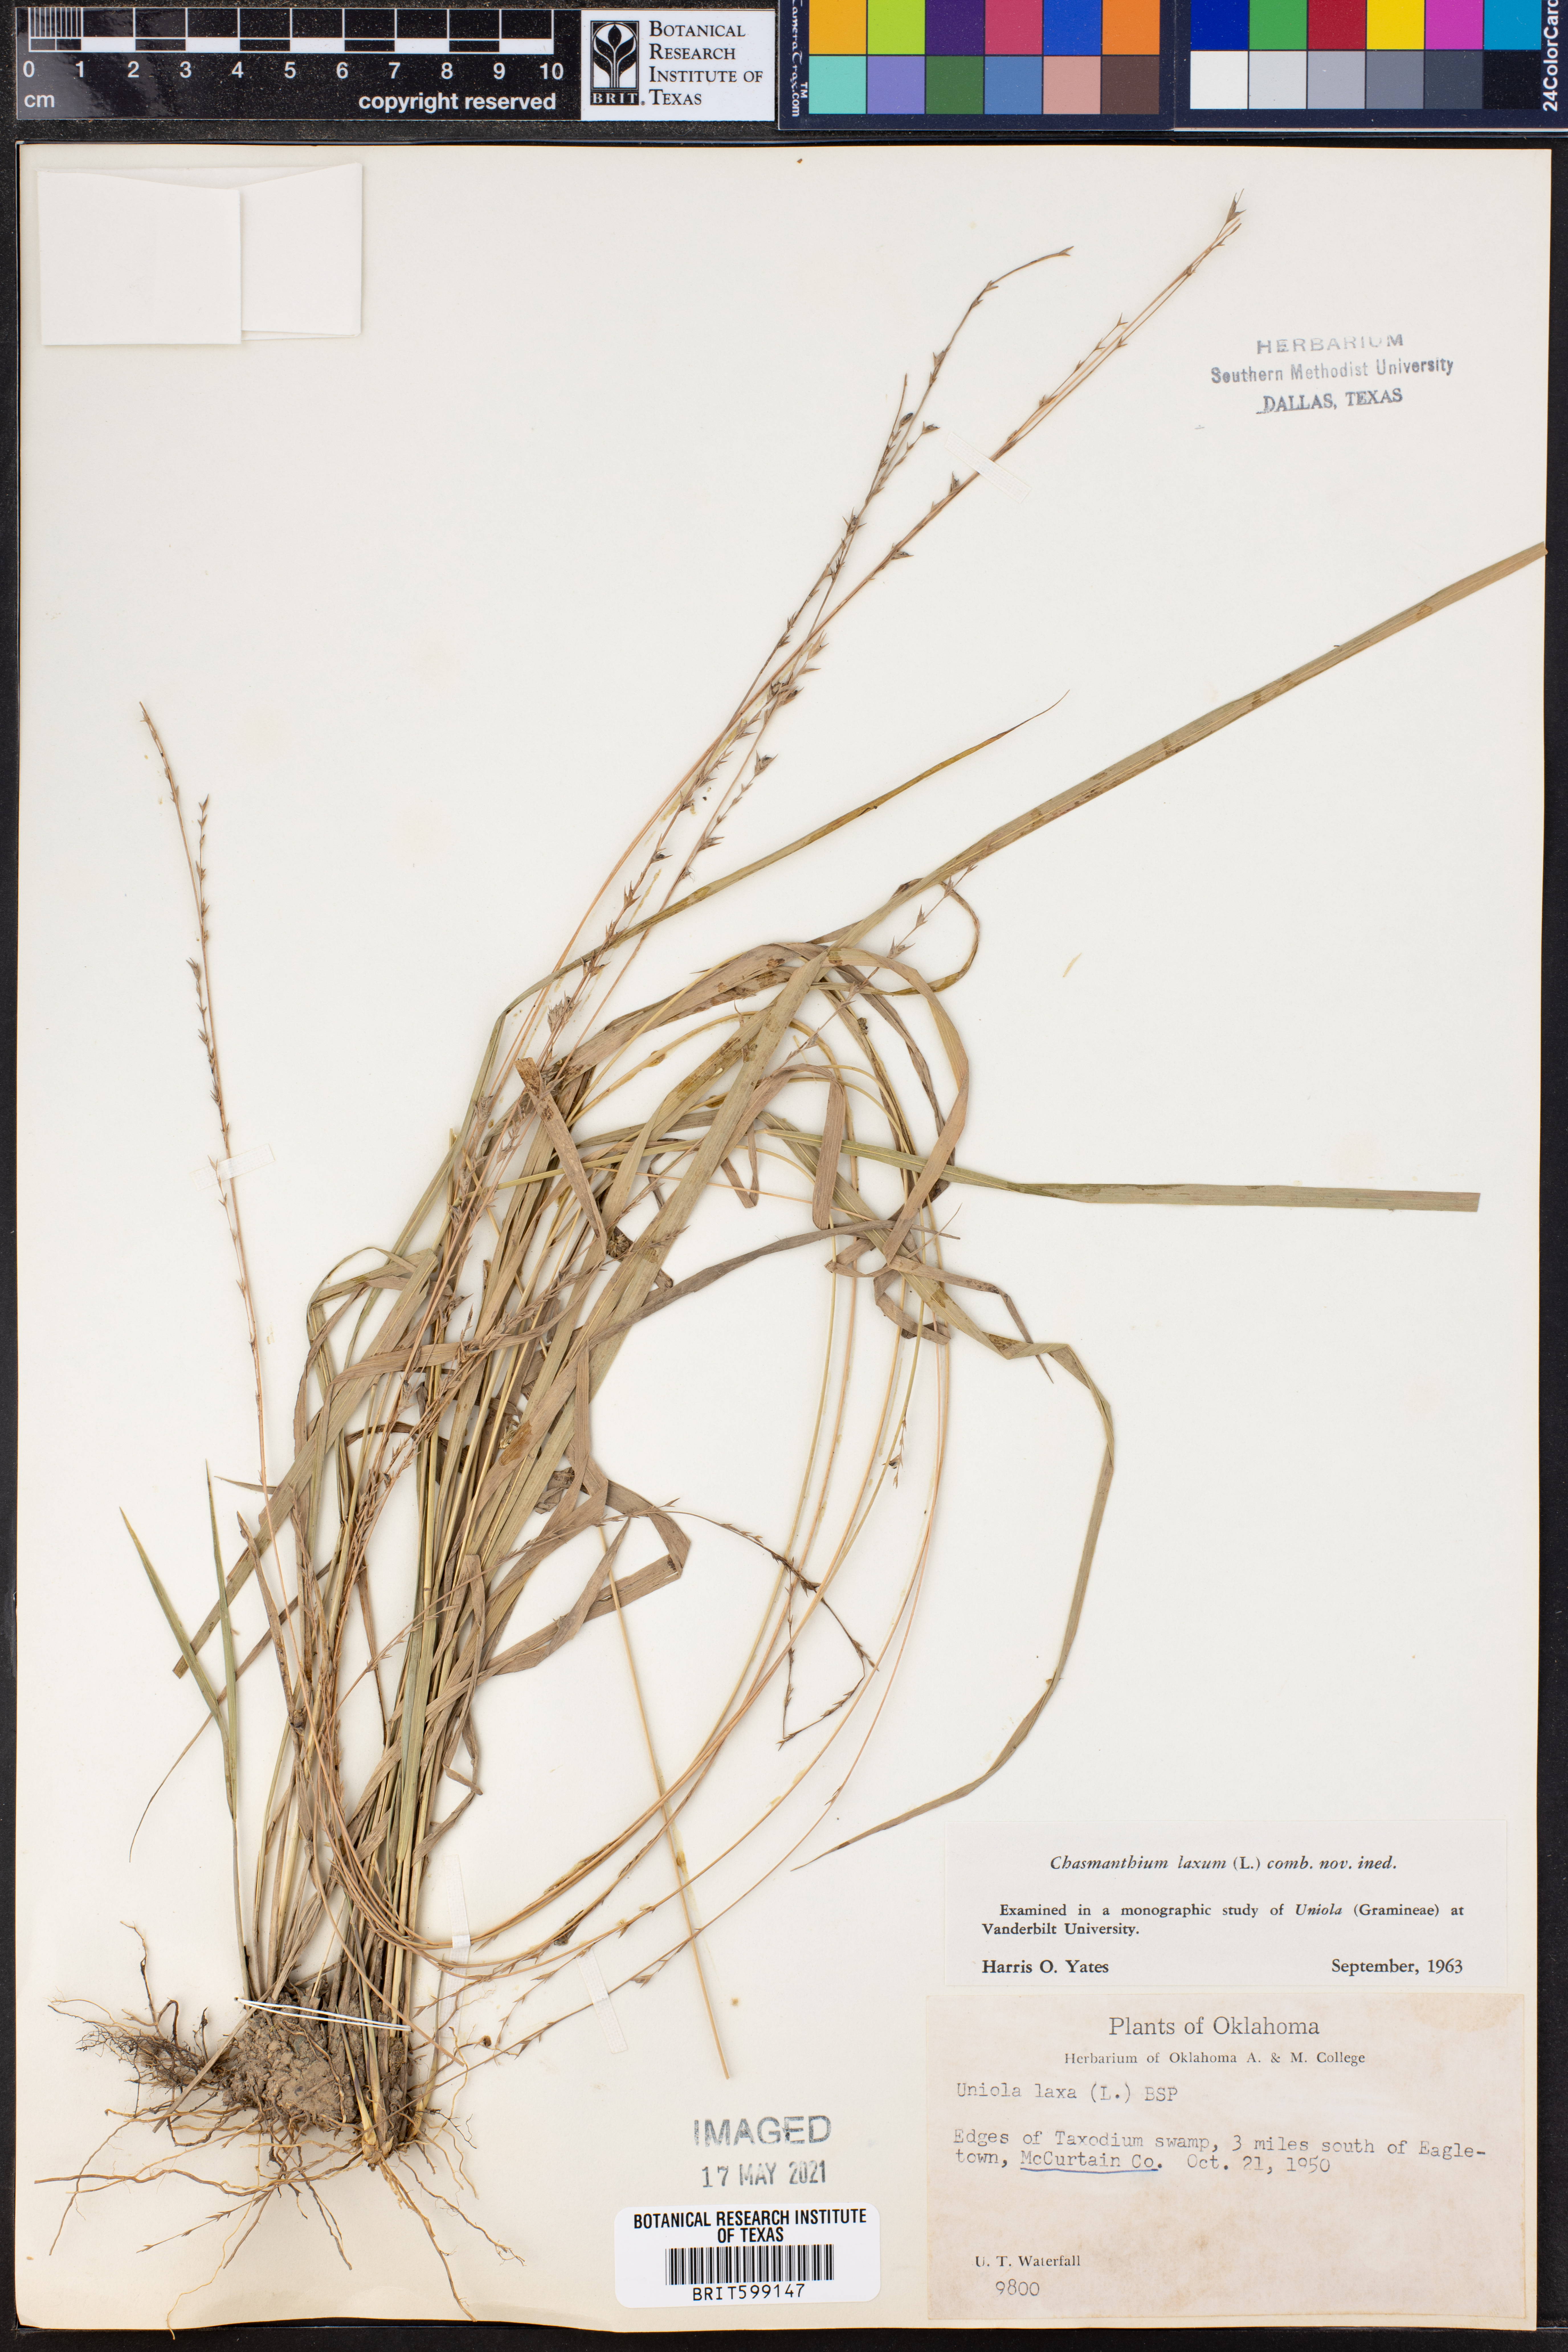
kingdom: Plantae
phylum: Tracheophyta
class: Liliopsida
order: Poales
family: Poaceae
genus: Chasmanthium
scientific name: Chasmanthium laxum
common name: Slender chasmanthium
